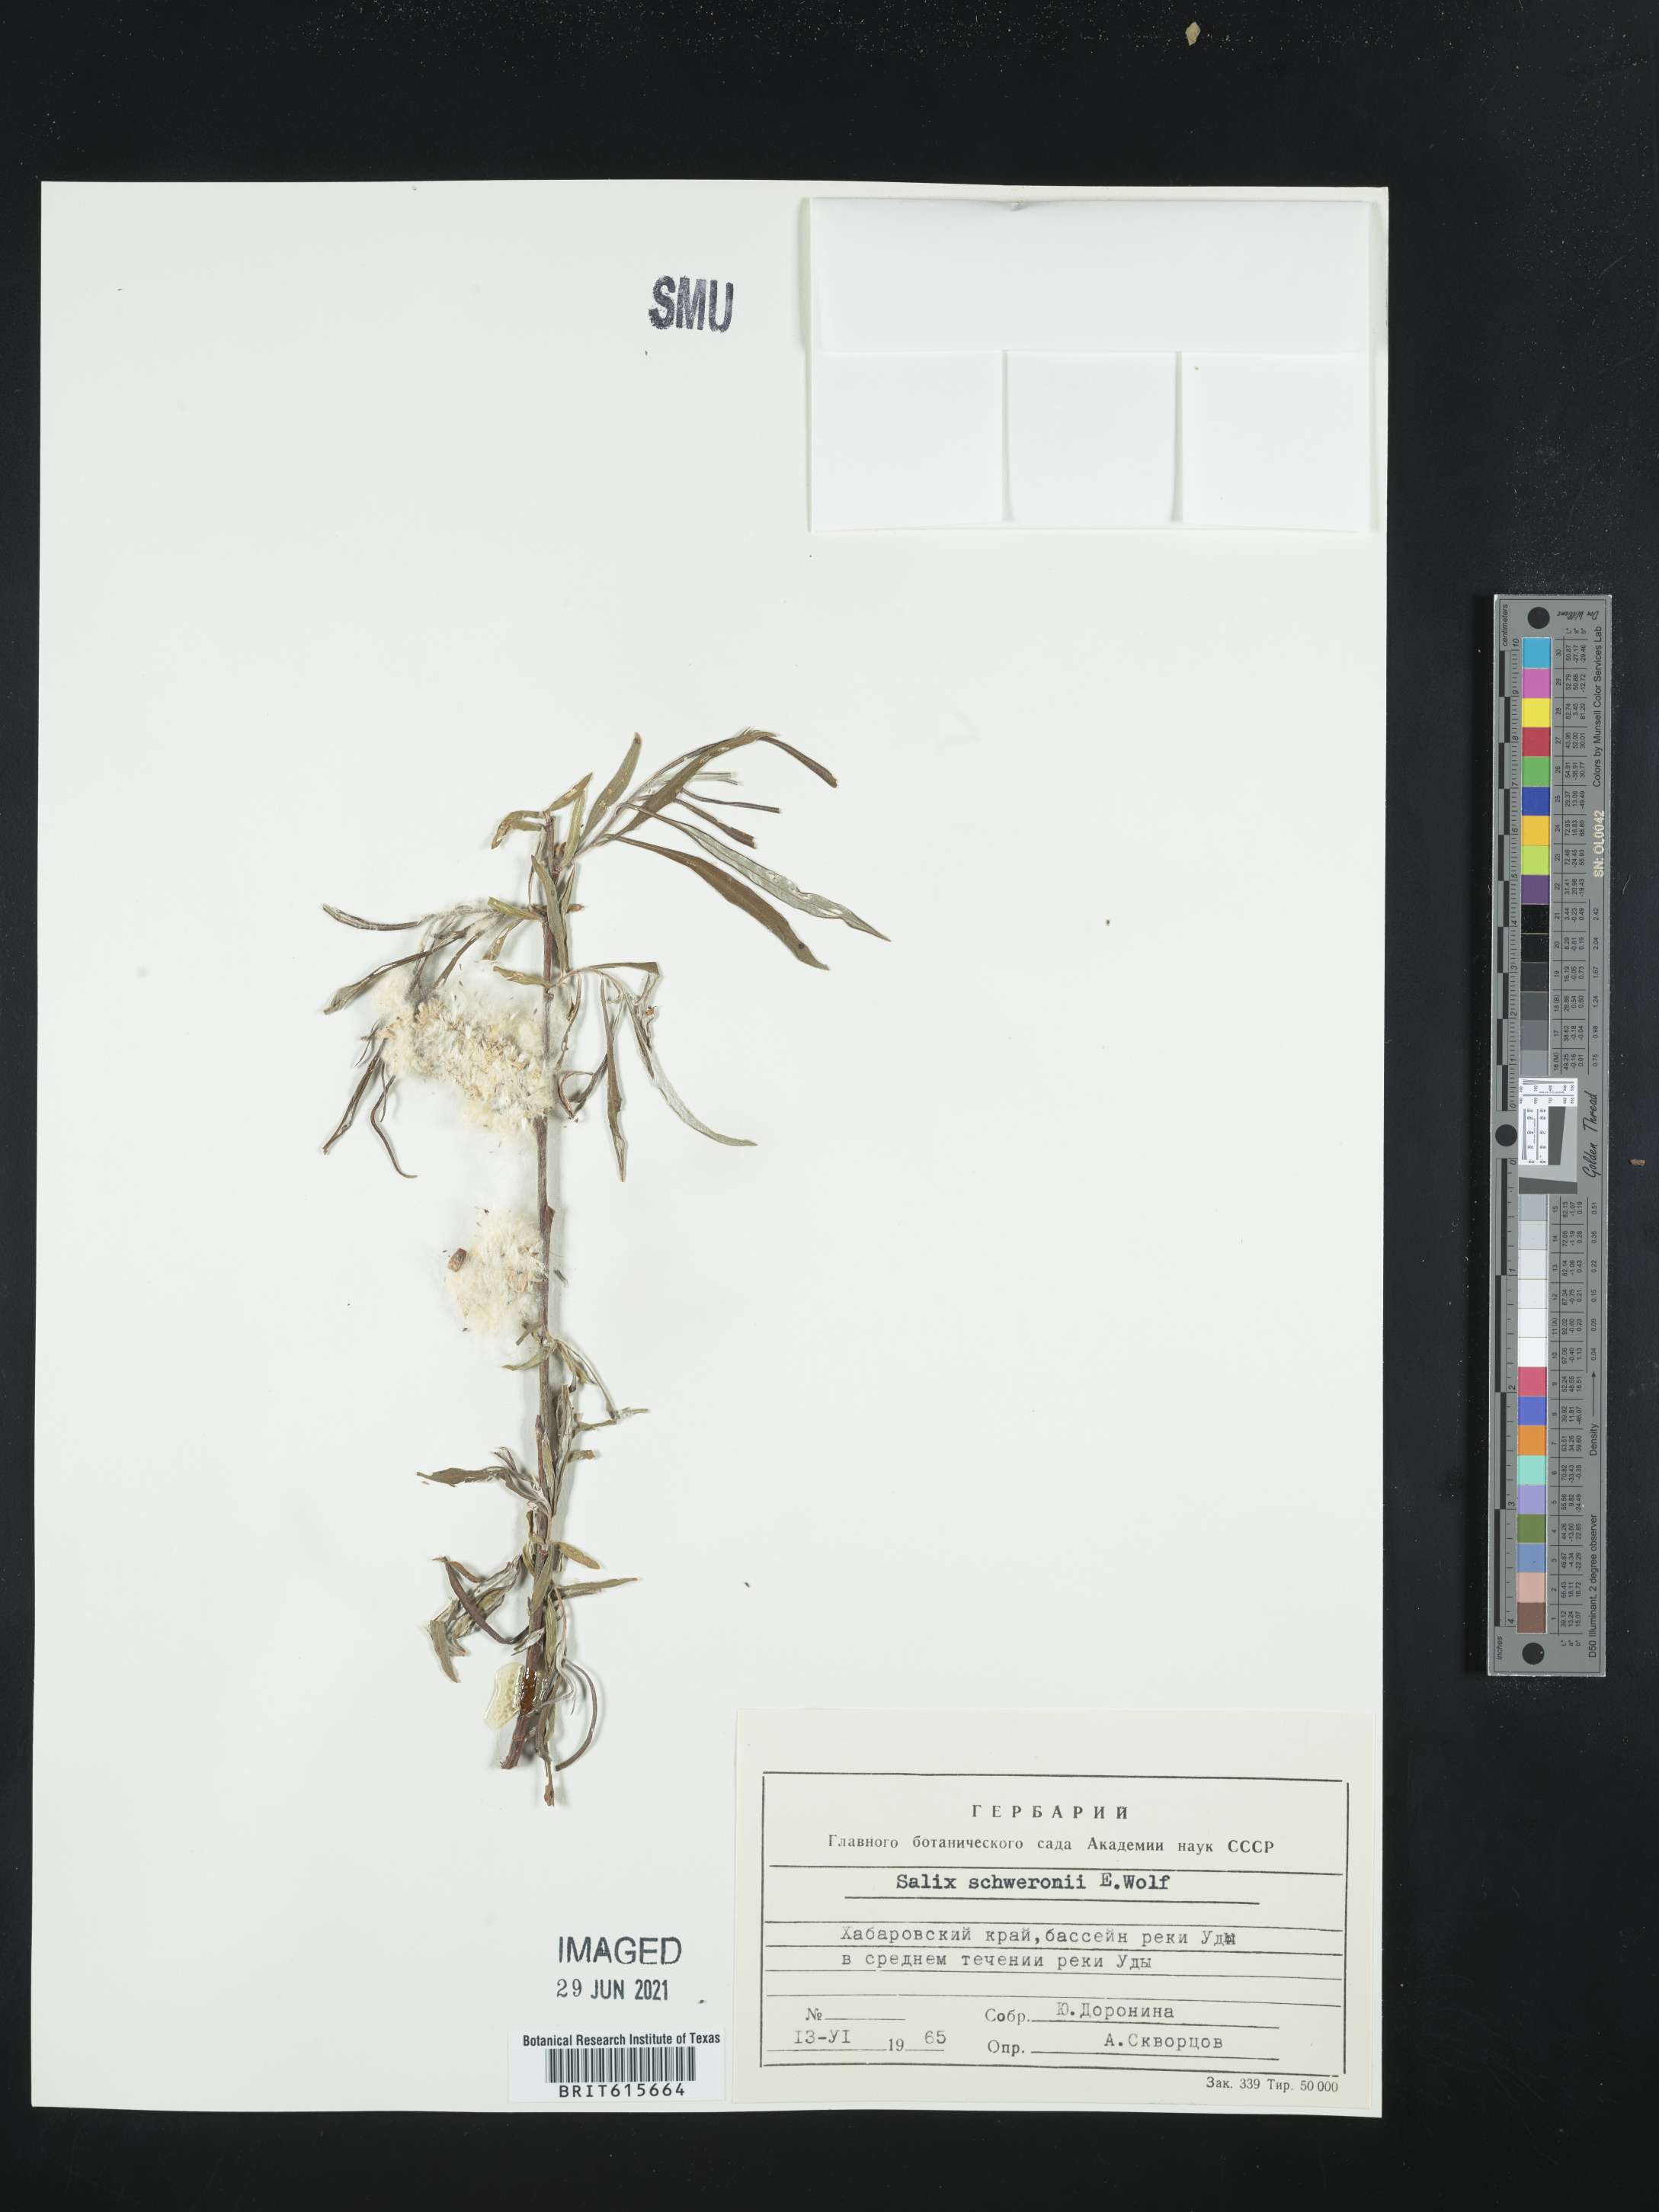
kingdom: Plantae
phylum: Tracheophyta
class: Magnoliopsida
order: Malpighiales
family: Salicaceae
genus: Salix
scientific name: Salix schwerinii
